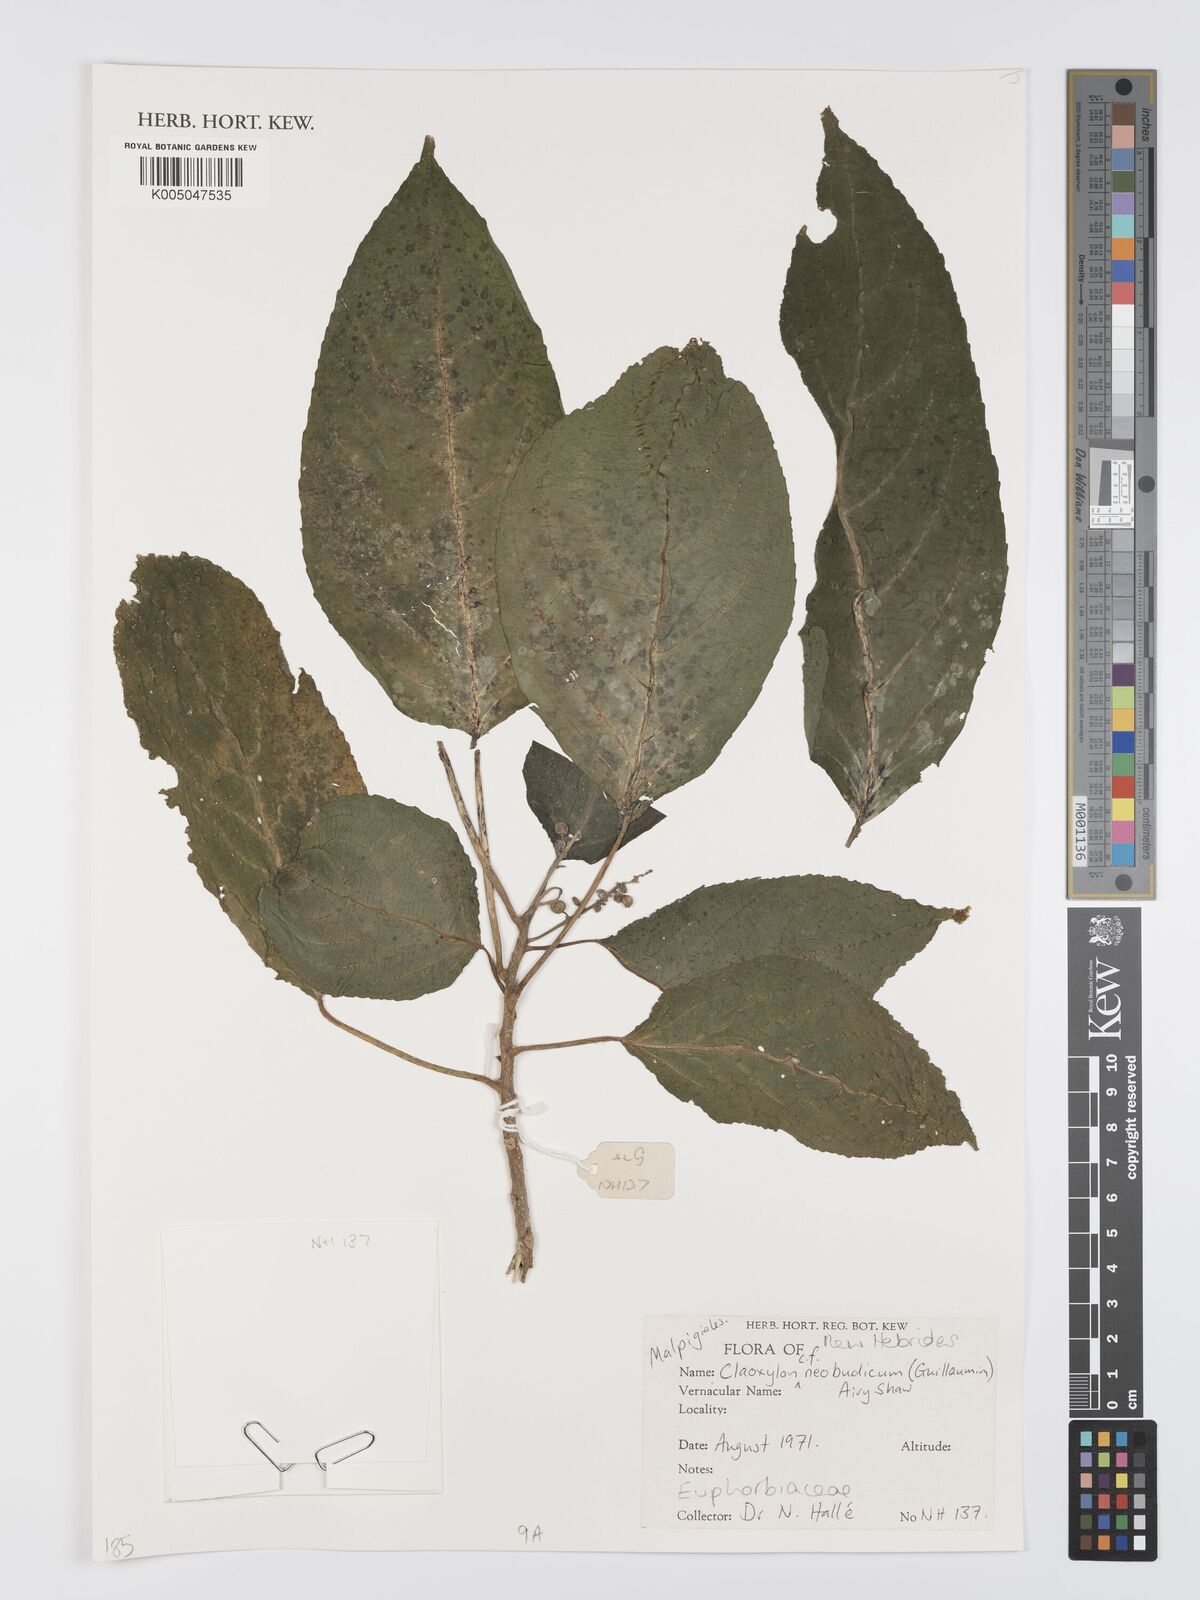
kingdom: Plantae
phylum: Tracheophyta
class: Magnoliopsida
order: Malpighiales
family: Euphorbiaceae
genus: Claoxylon
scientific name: Claoxylon neoebudicum
